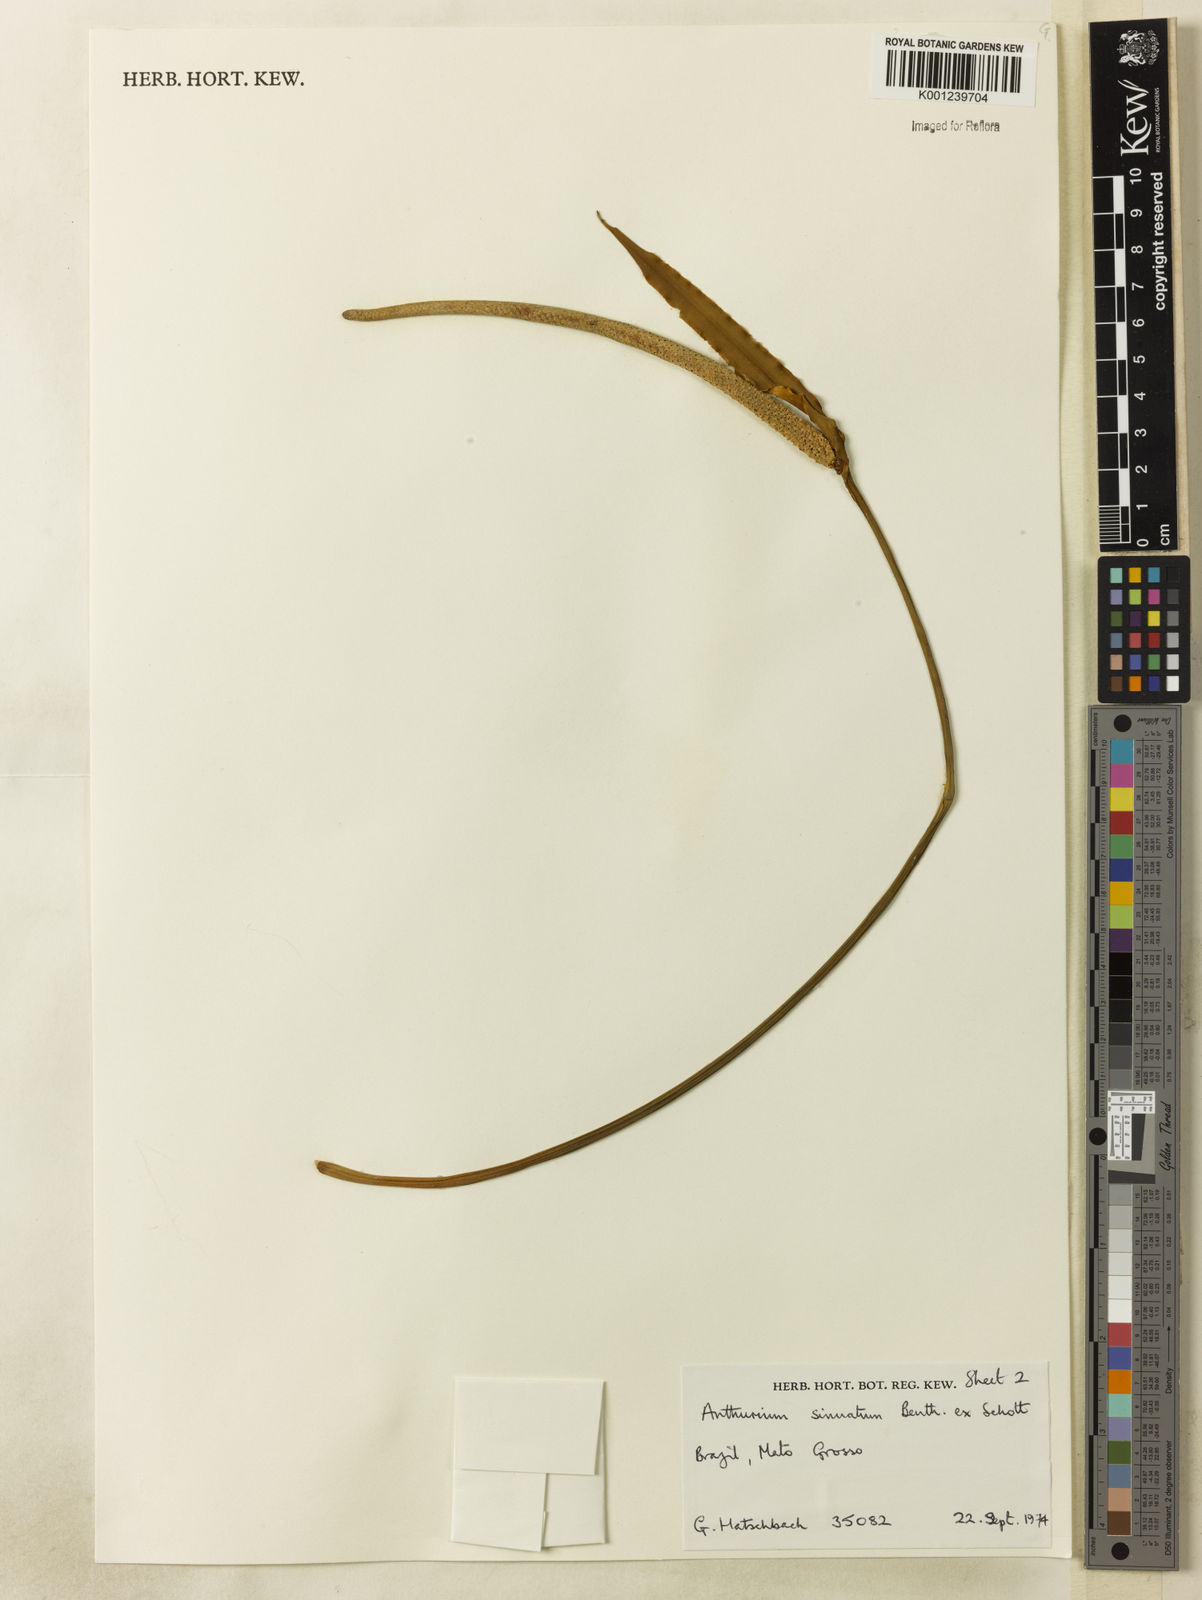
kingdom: Plantae
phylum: Tracheophyta
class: Liliopsida
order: Alismatales
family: Araceae
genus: Anthurium
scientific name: Anthurium sinuatum
